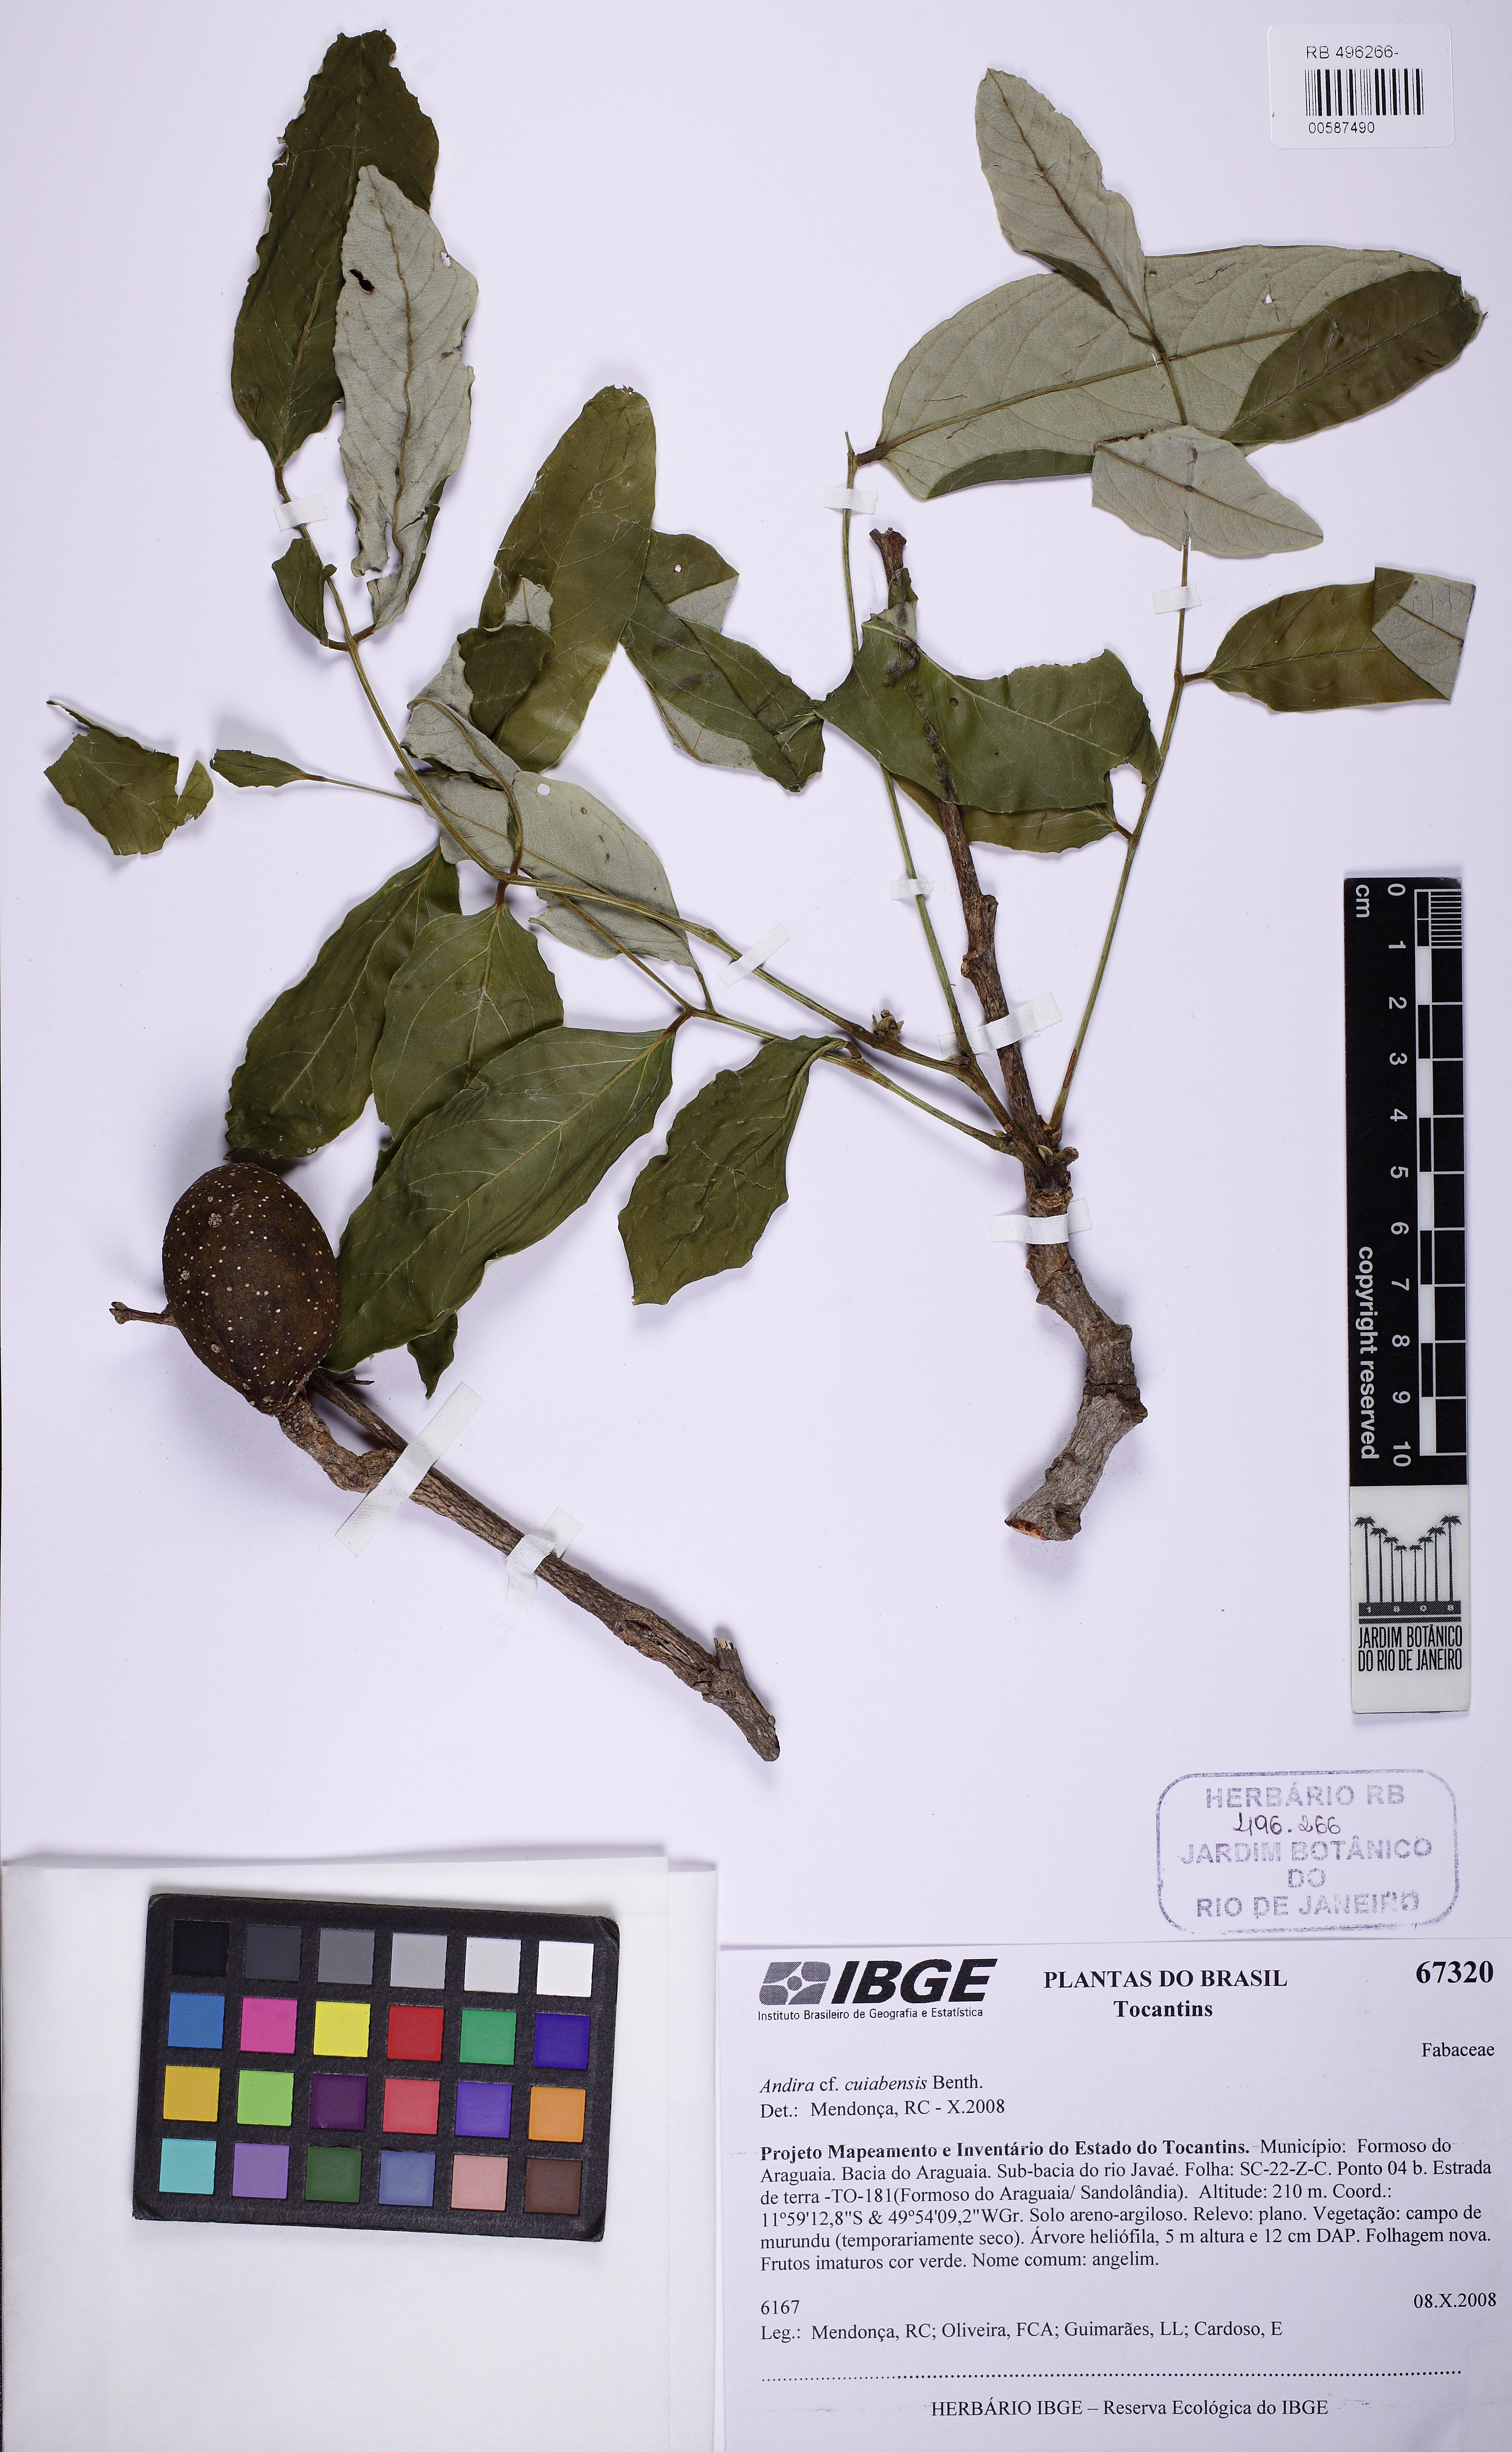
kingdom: Plantae
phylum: Tracheophyta
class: Magnoliopsida
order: Fabales
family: Fabaceae
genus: Andira
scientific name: Andira cujabensis
